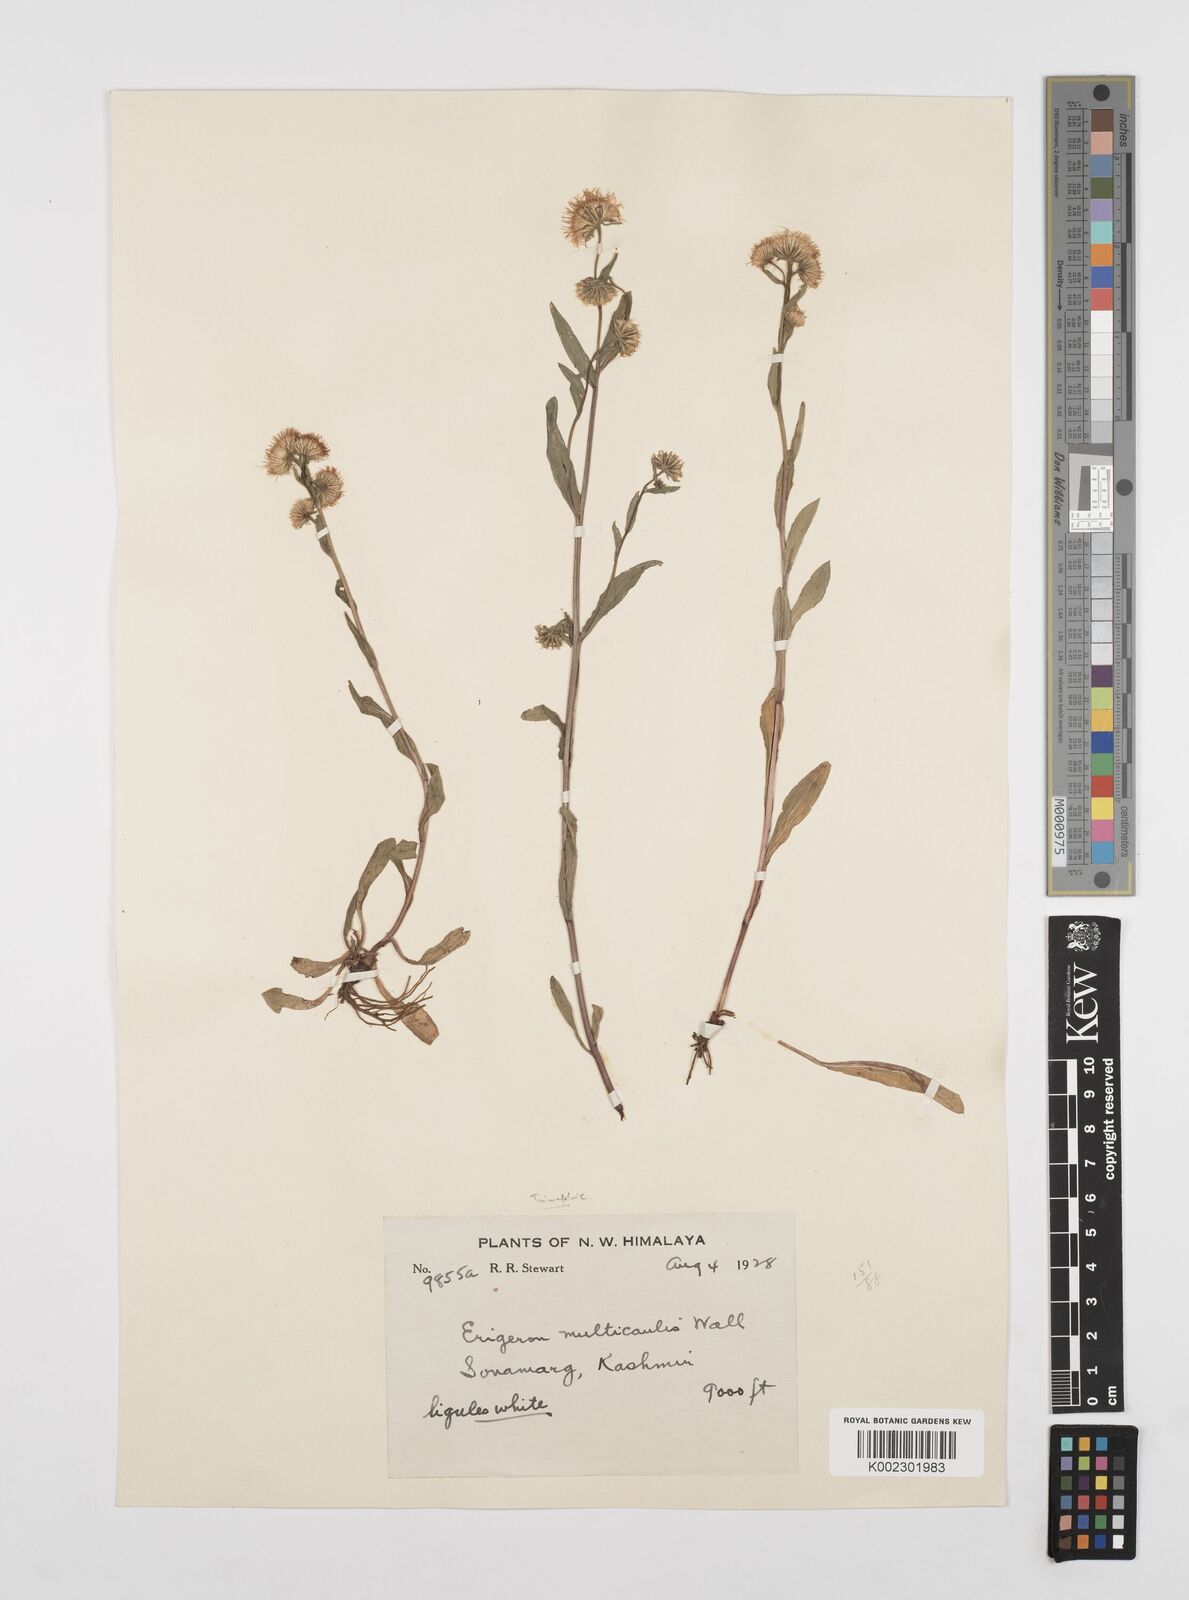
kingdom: Plantae
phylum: Tracheophyta
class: Magnoliopsida
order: Asterales
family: Asteraceae
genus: Erigeron
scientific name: Erigeron alpinus
